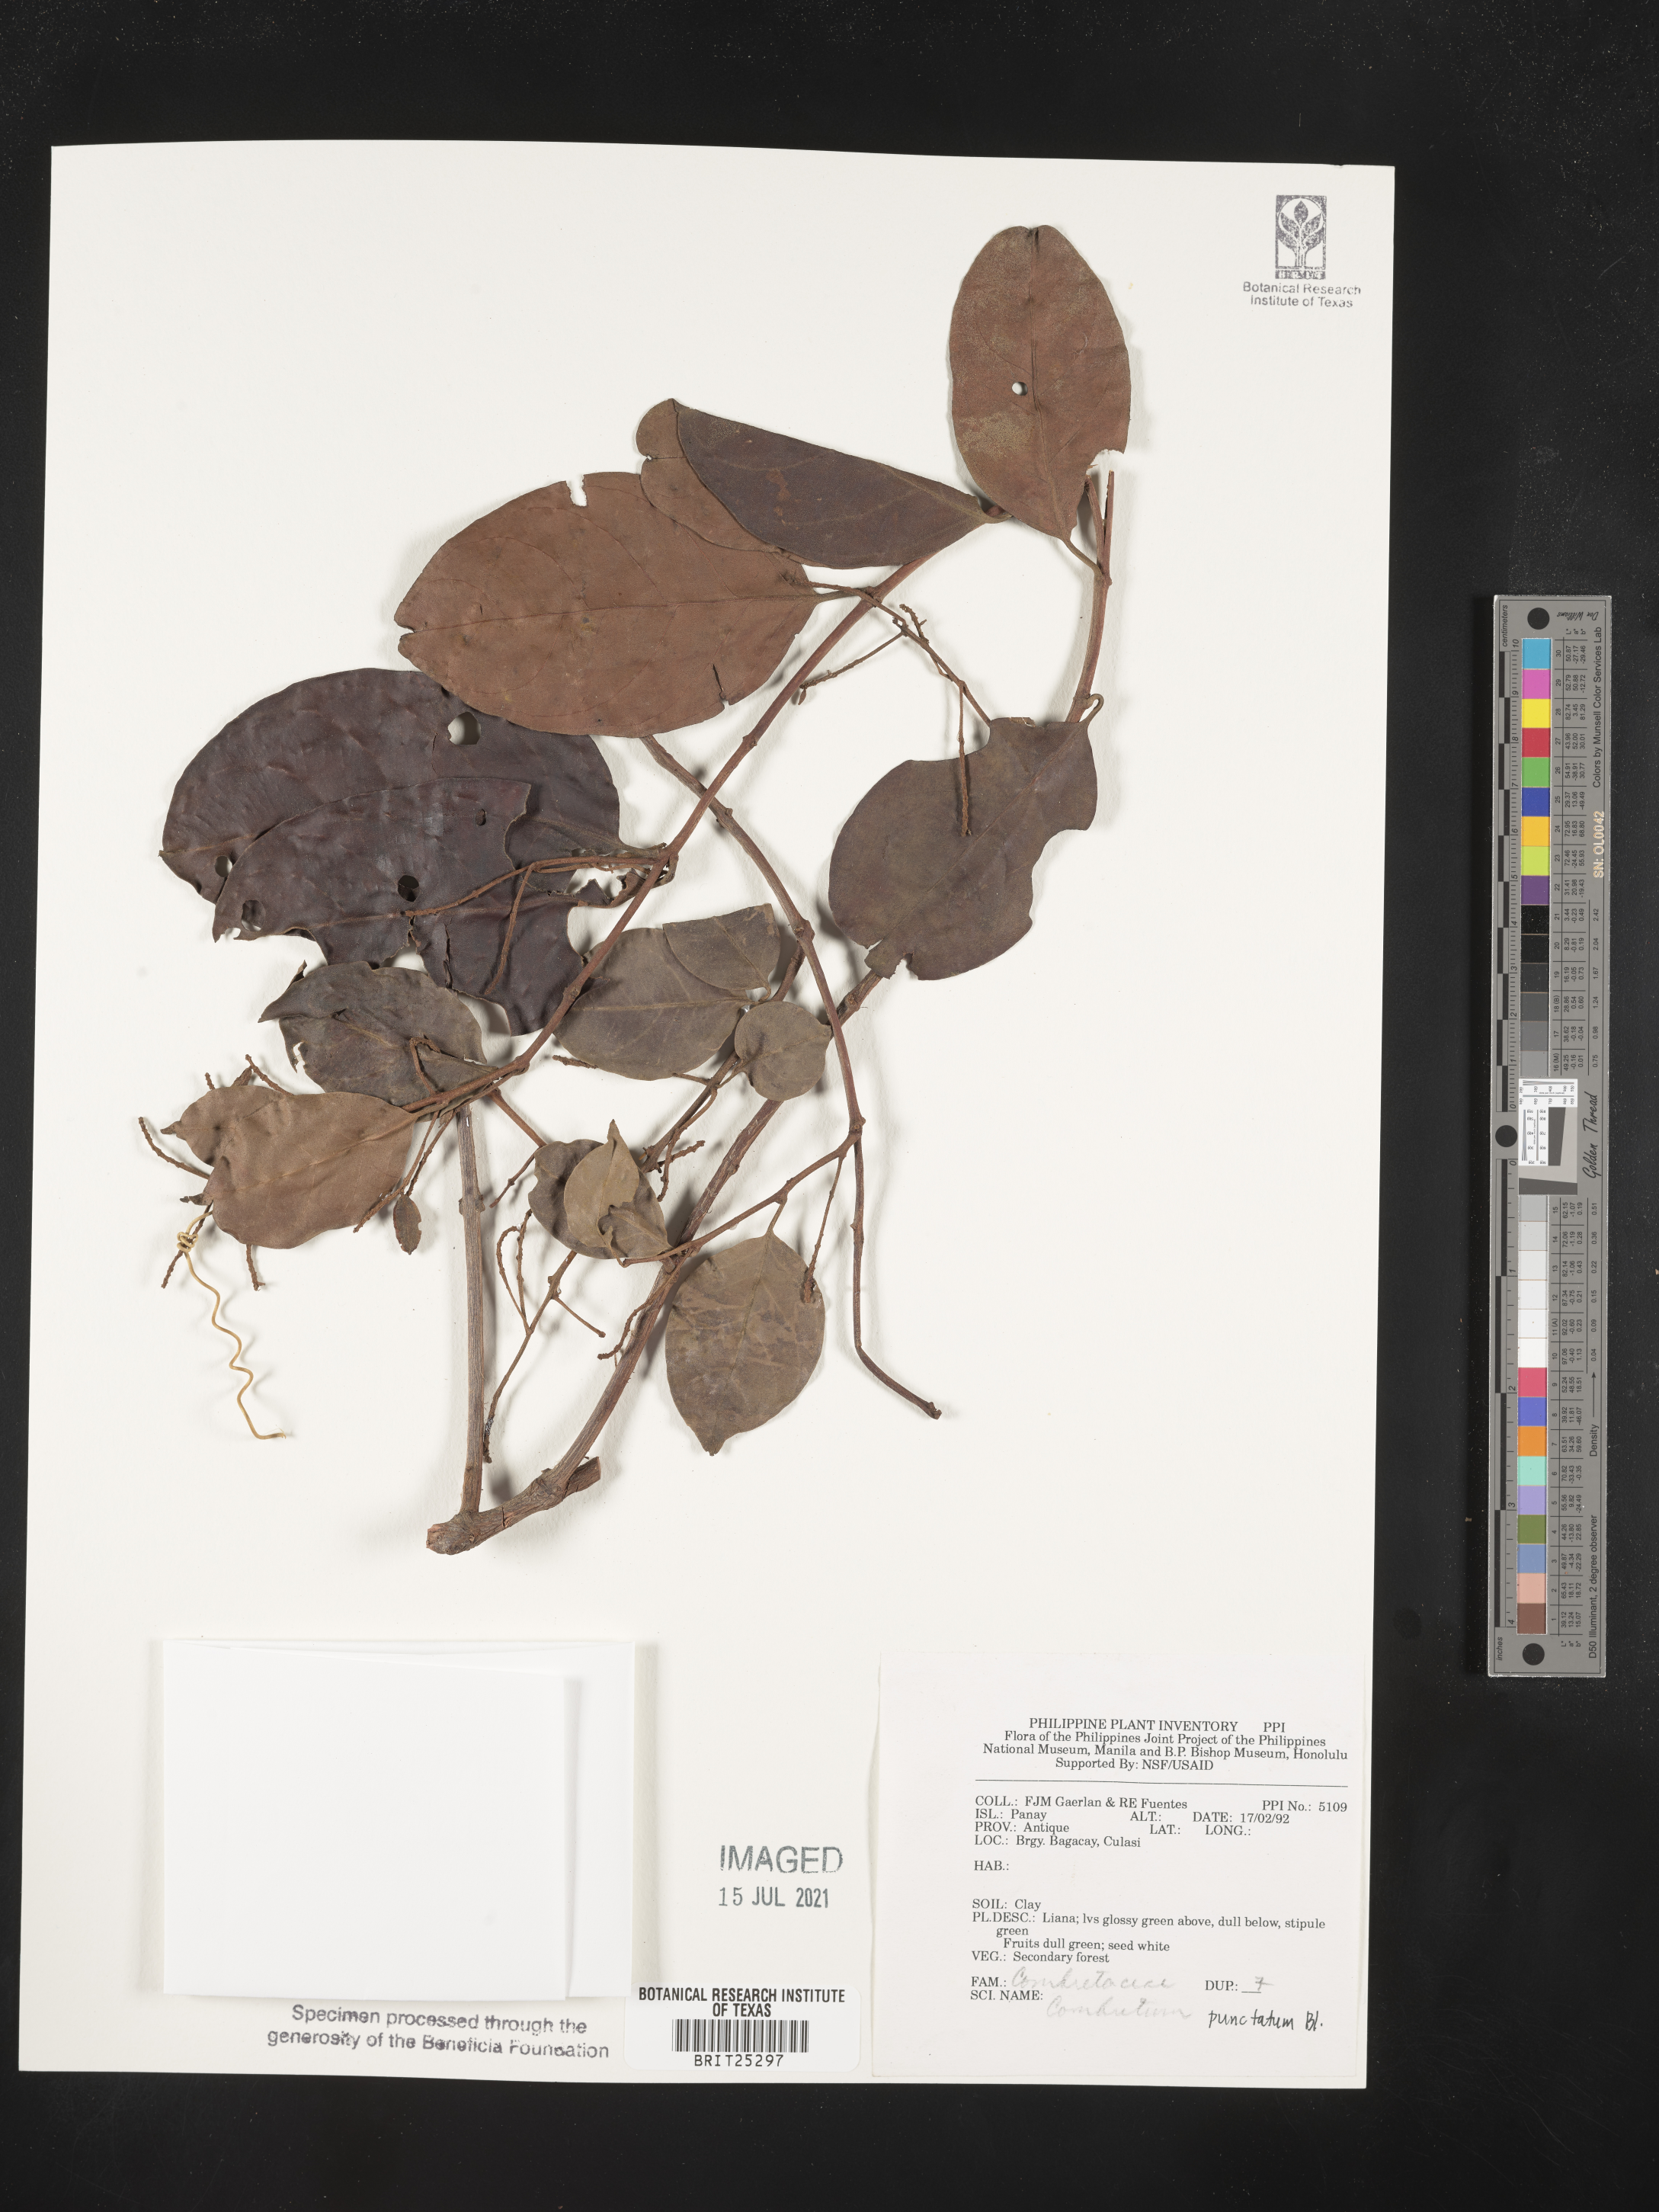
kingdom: Plantae
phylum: Tracheophyta
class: Magnoliopsida
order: Myrtales
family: Combretaceae
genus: Combretum
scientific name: Combretum
